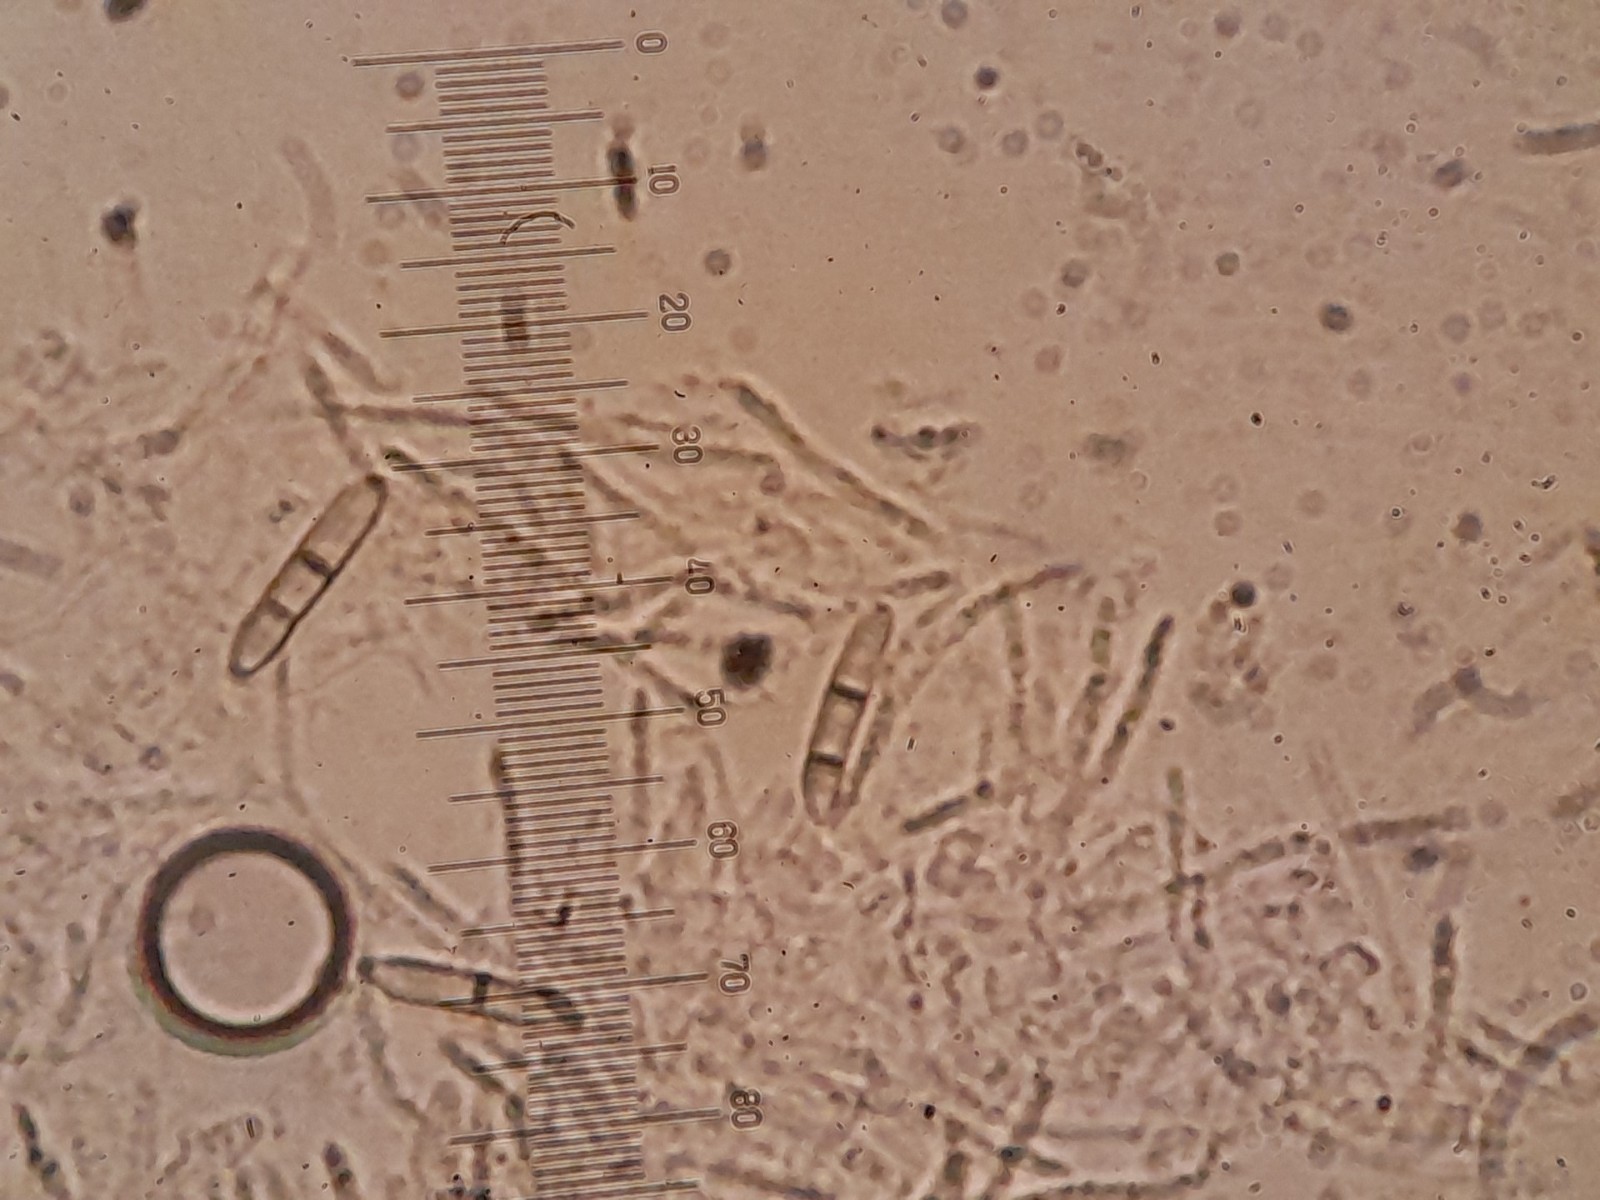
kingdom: Fungi
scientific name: Fungi
